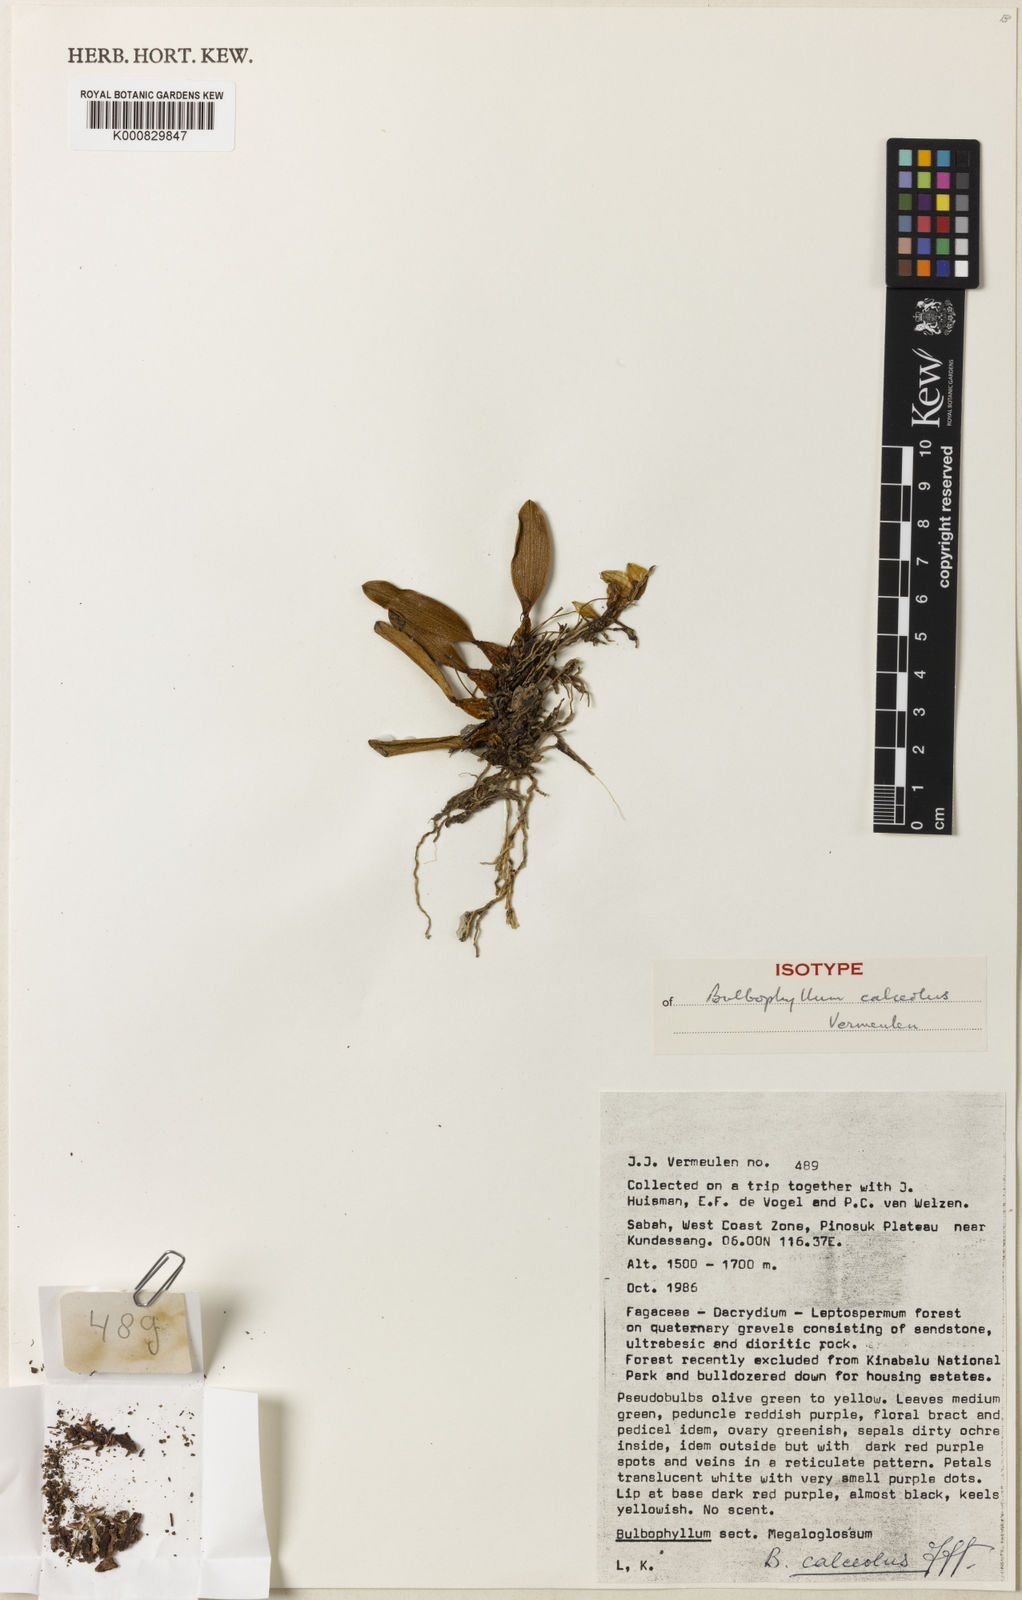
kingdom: Plantae
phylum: Tracheophyta
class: Liliopsida
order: Asparagales
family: Orchidaceae
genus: Bulbophyllum
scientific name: Bulbophyllum calceolus
